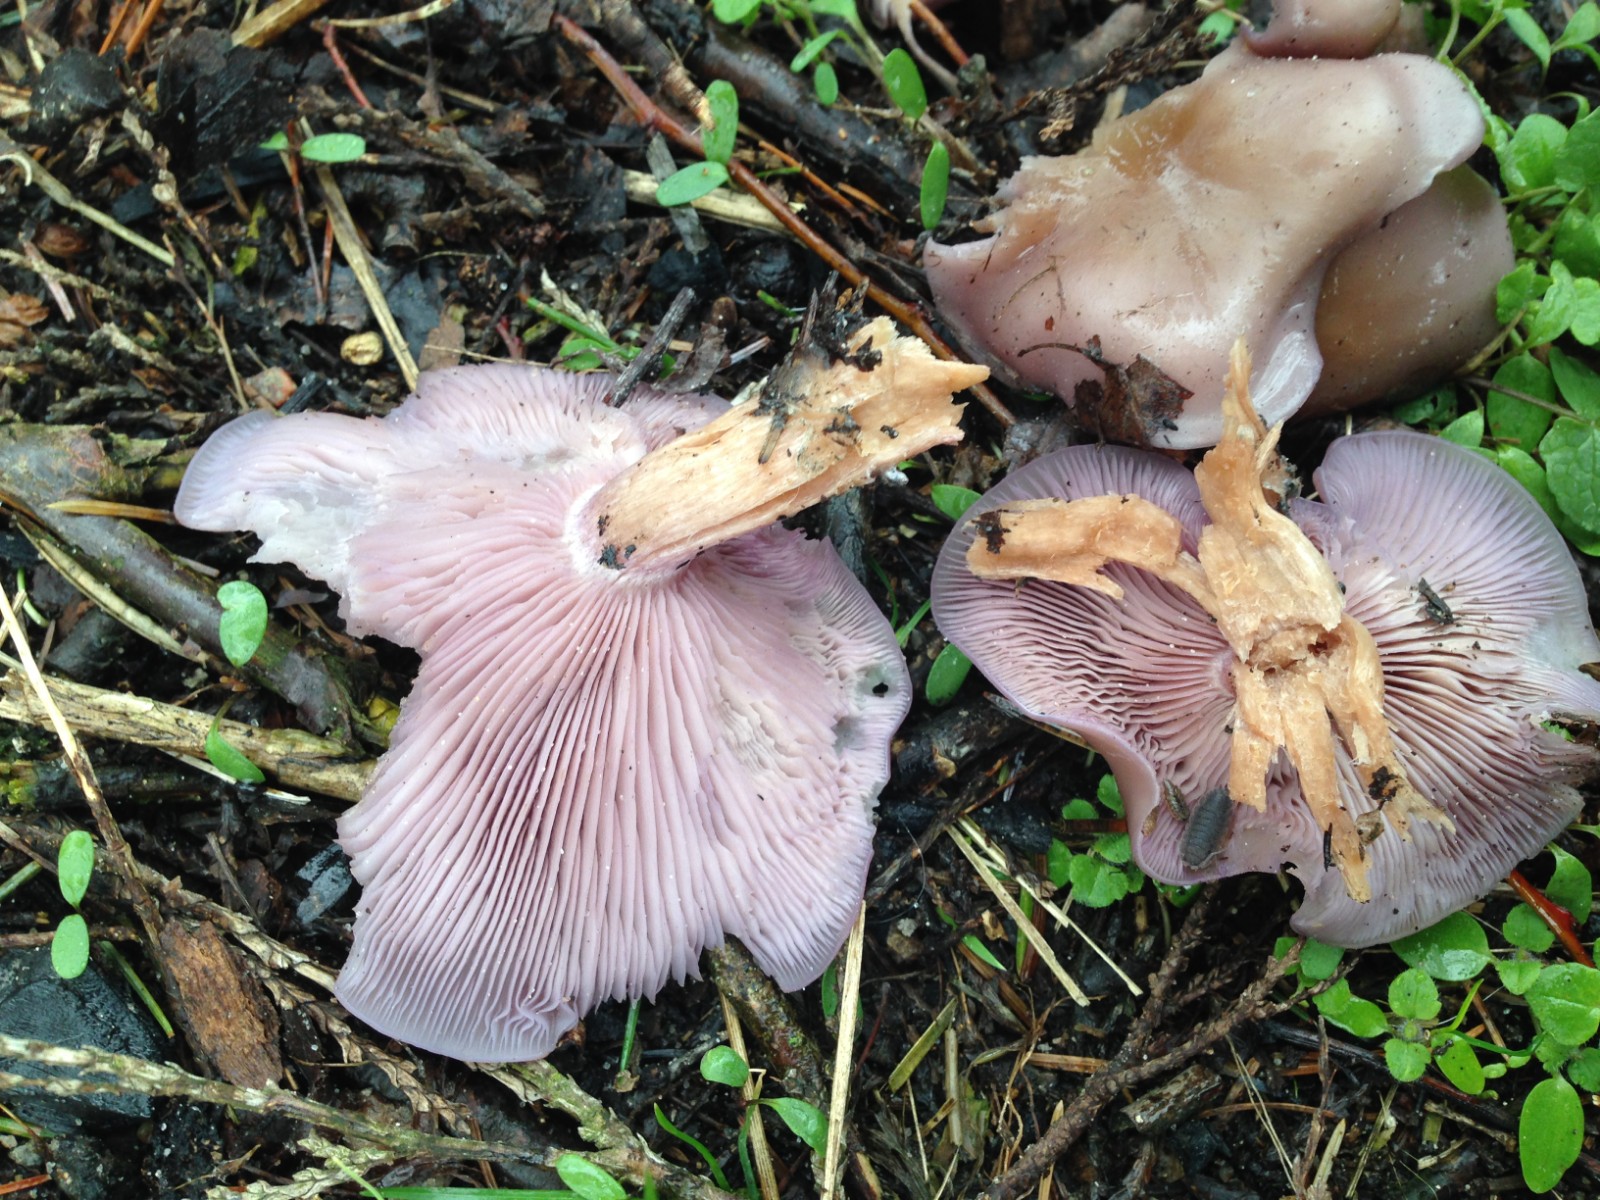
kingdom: Fungi
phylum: Basidiomycota
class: Agaricomycetes
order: Agaricales
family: Tricholomataceae
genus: Lepista
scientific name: Lepista nuda
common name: violet hekseringshat
